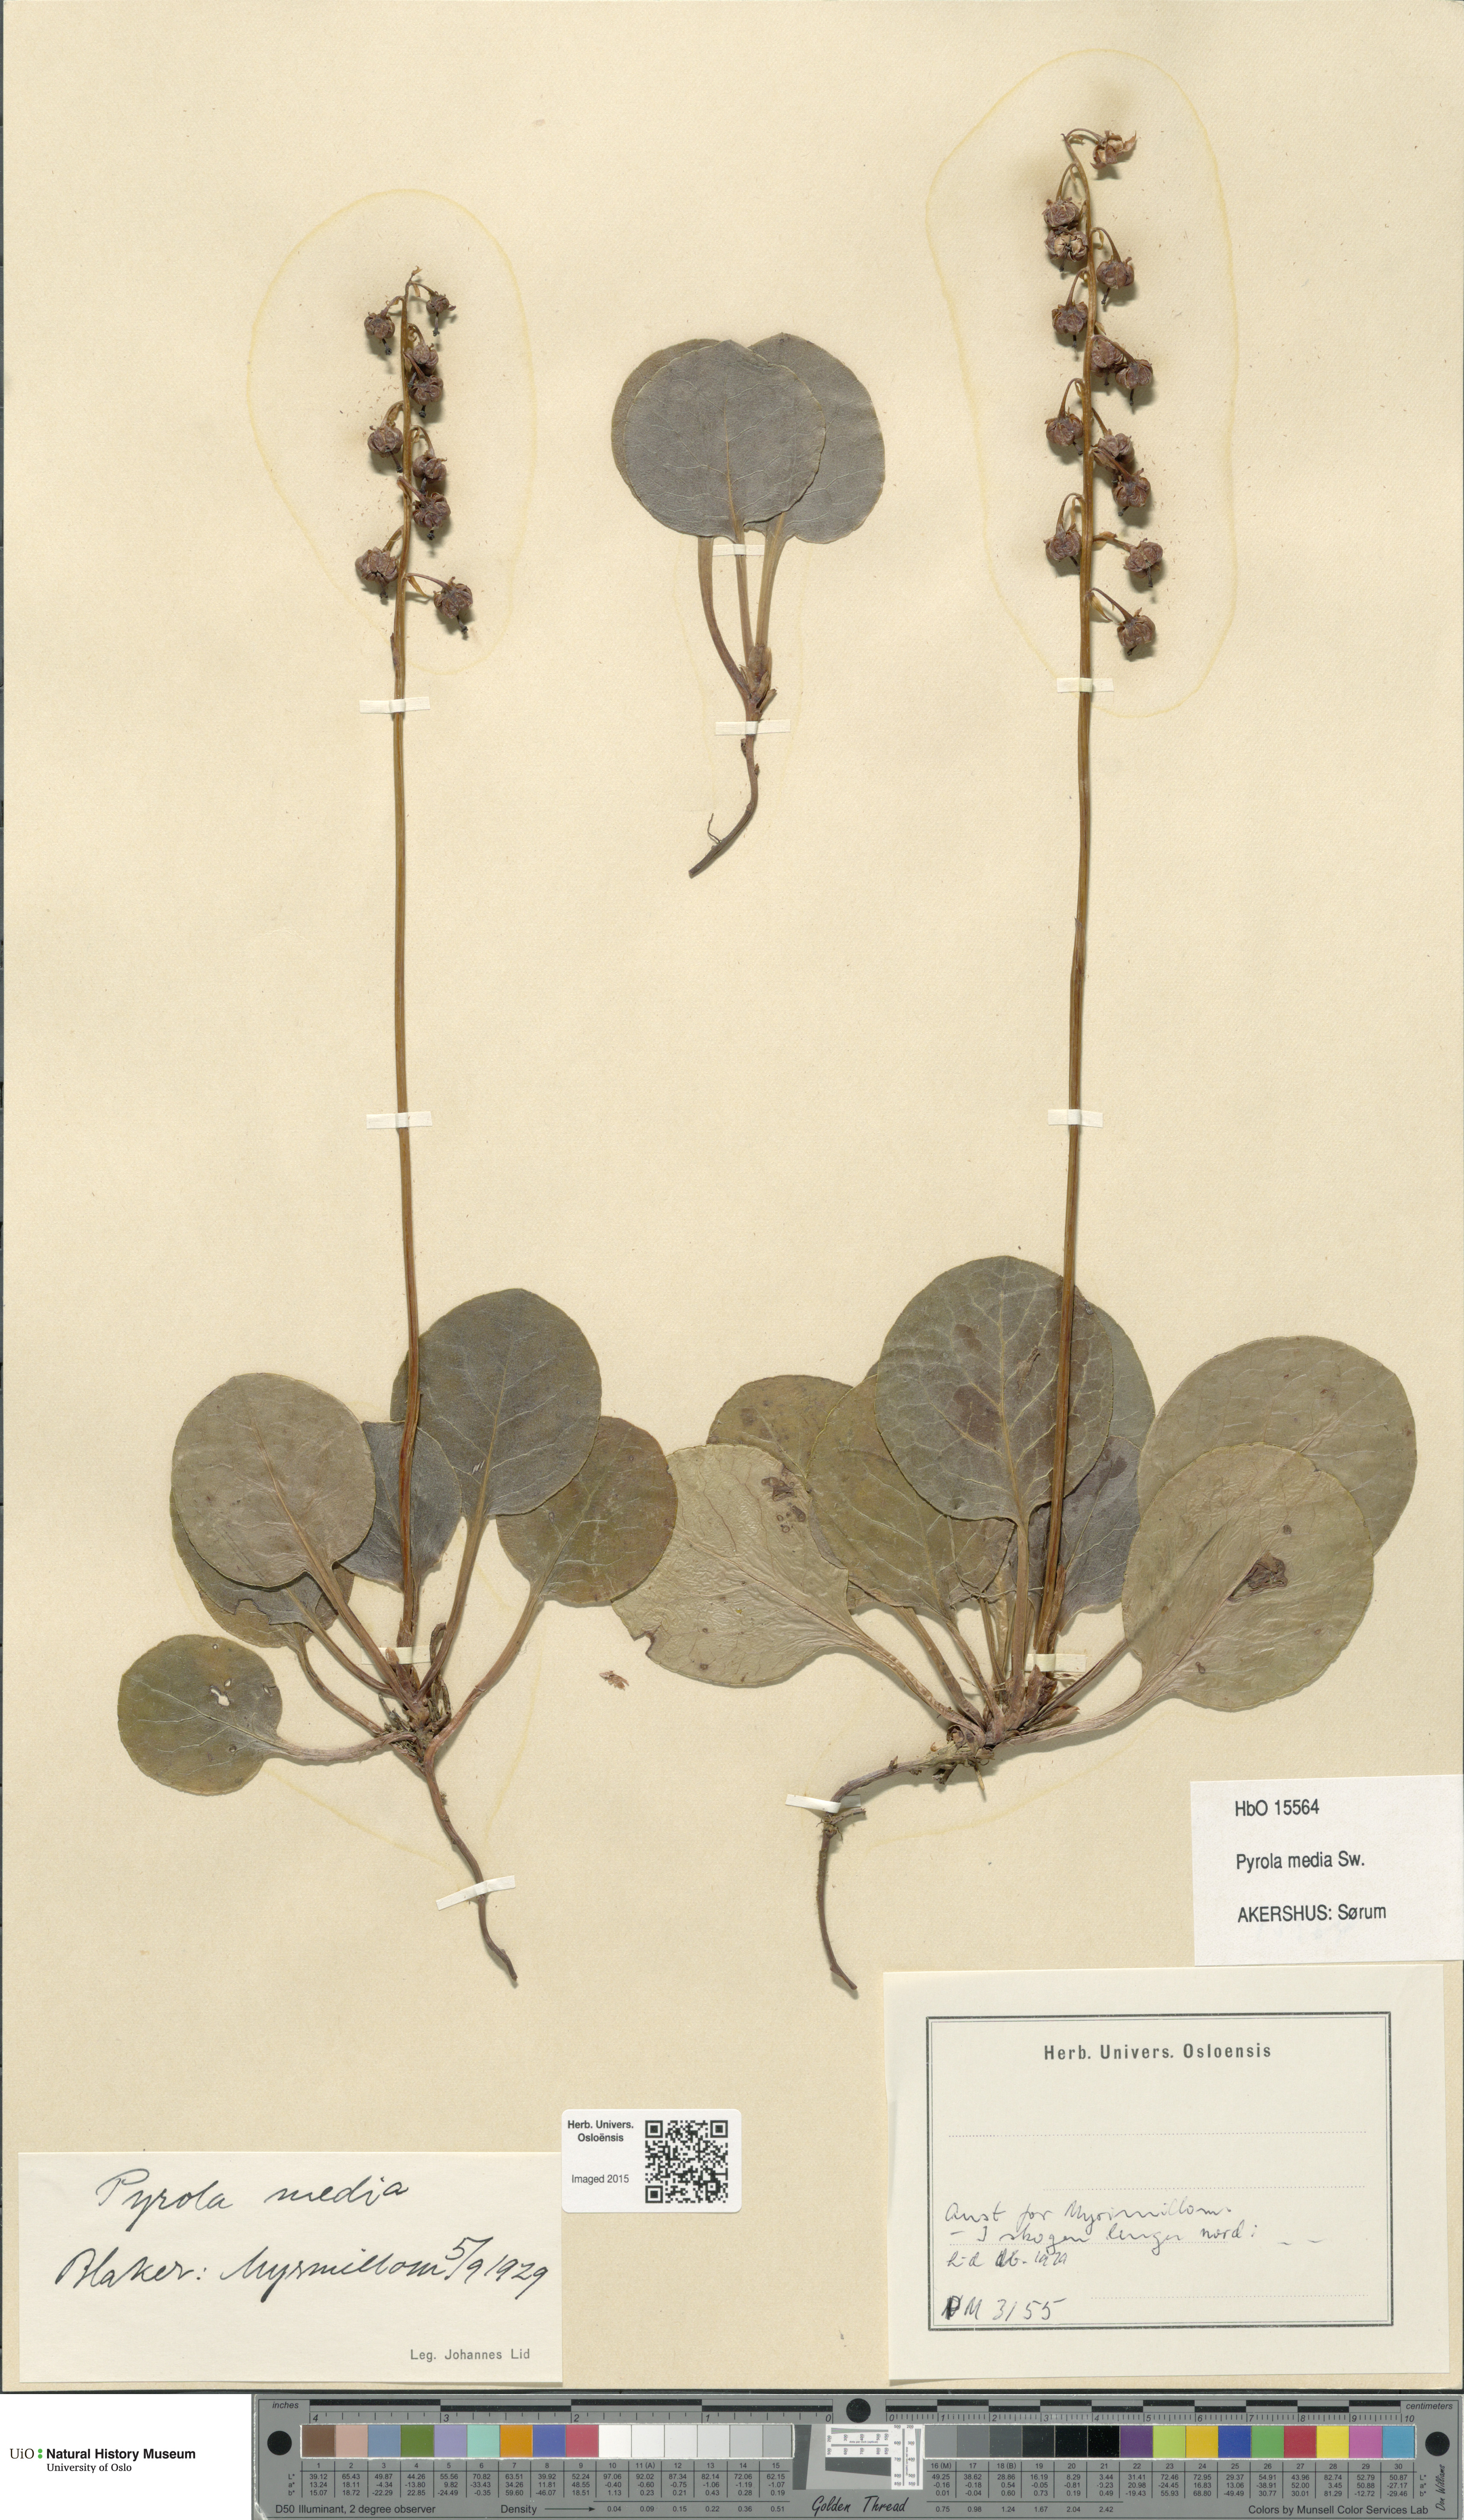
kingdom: Plantae
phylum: Tracheophyta
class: Magnoliopsida
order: Ericales
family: Ericaceae
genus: Pyrola
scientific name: Pyrola media
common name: Intermediate wintergreen
